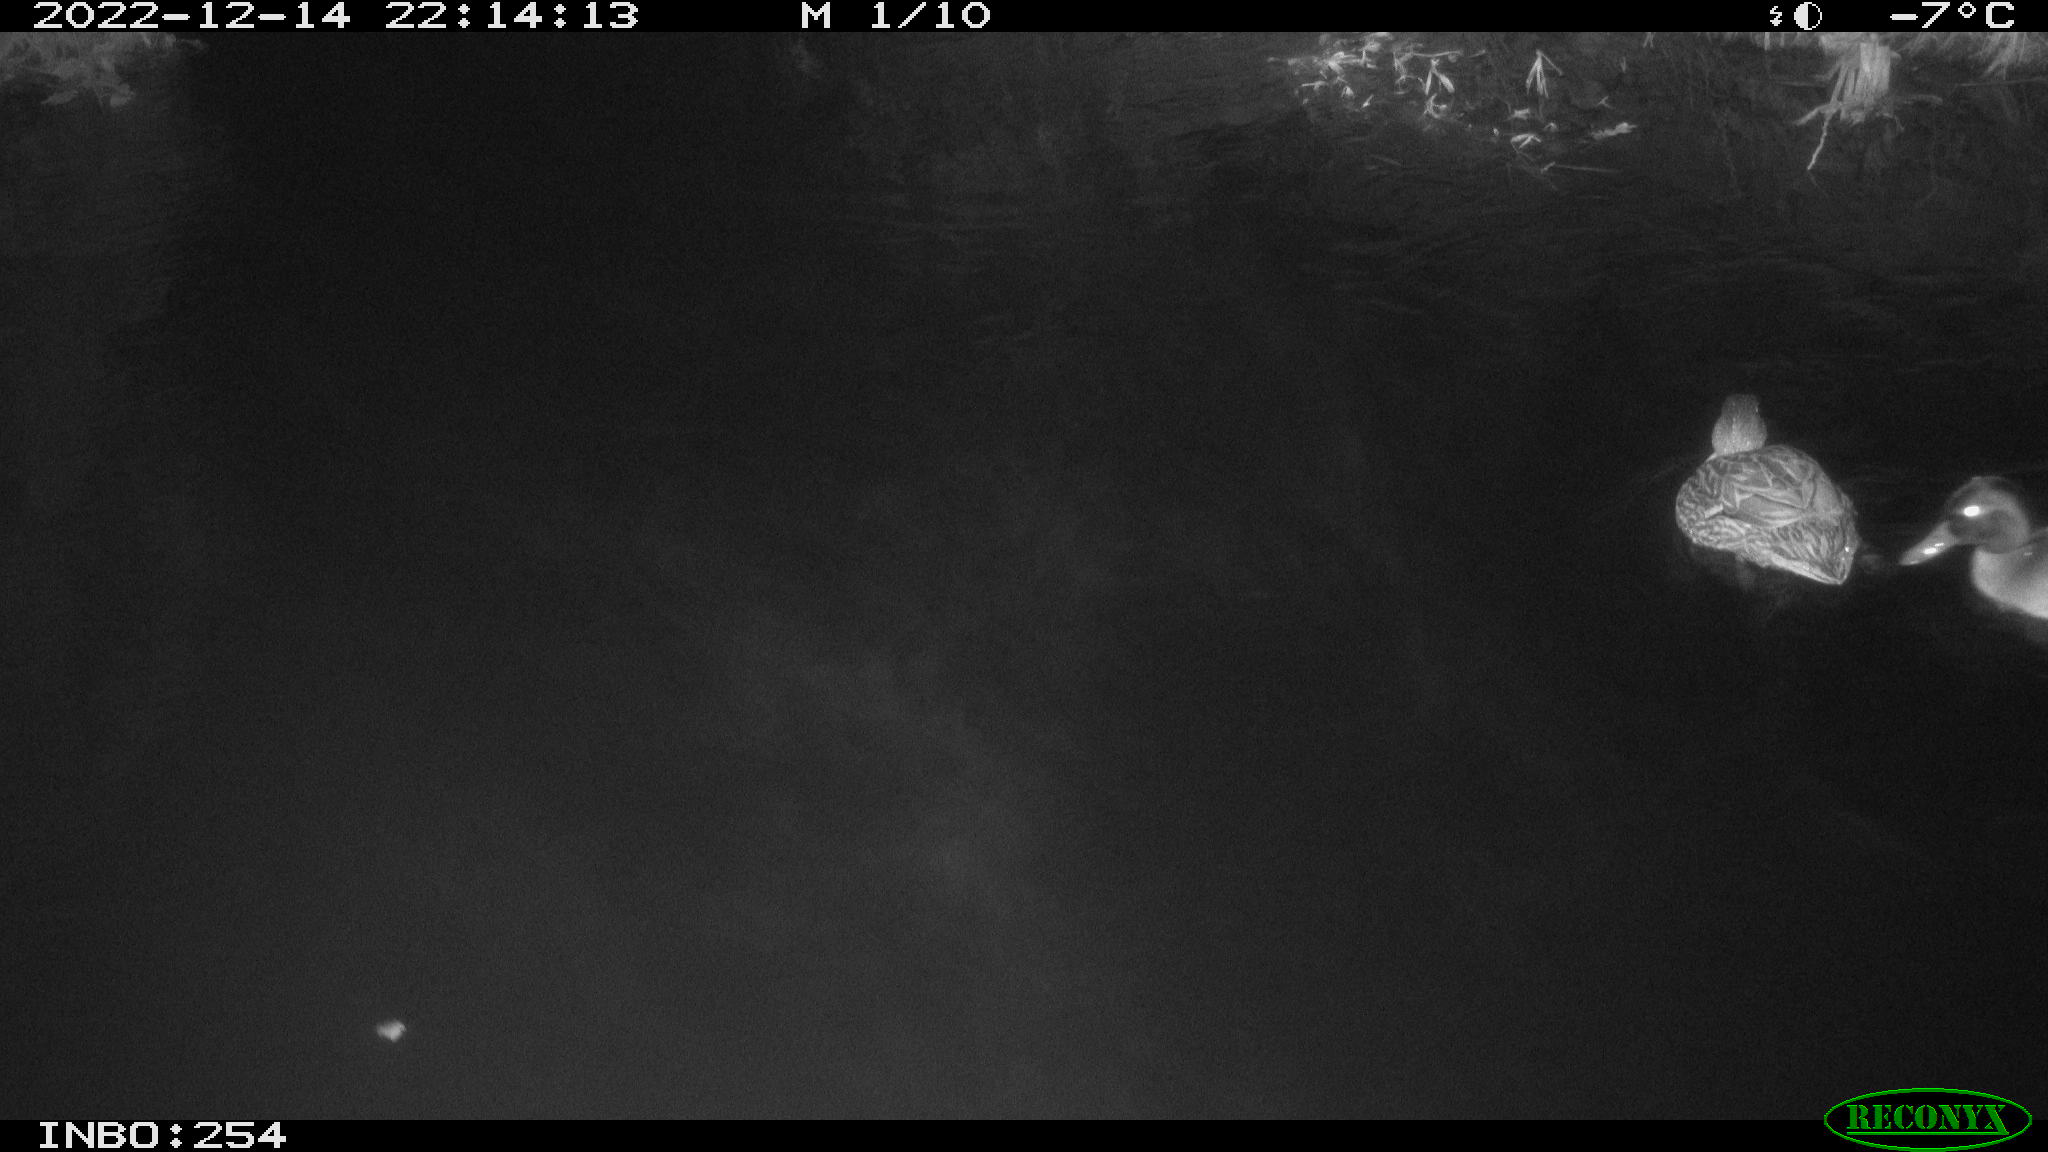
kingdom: Animalia
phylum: Chordata
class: Aves
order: Anseriformes
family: Anatidae
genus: Anas
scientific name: Anas
